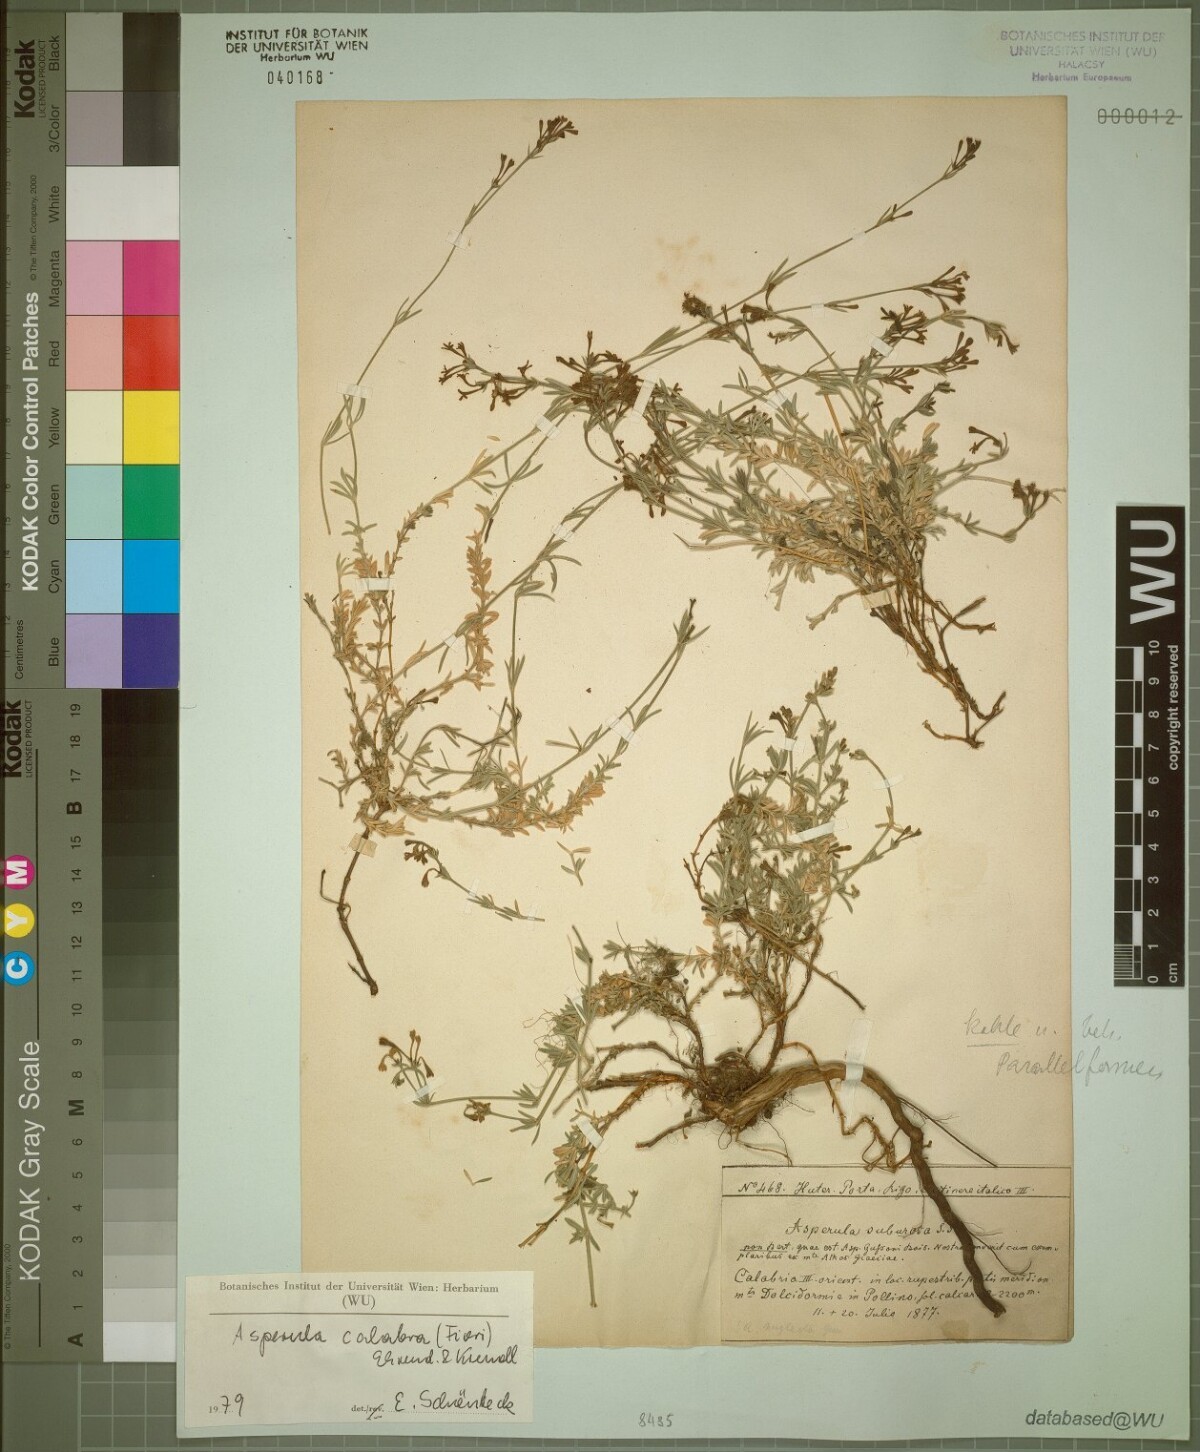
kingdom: Plantae
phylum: Tracheophyta
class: Magnoliopsida
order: Gentianales
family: Rubiaceae
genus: Cynanchica
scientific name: Cynanchica aristata
